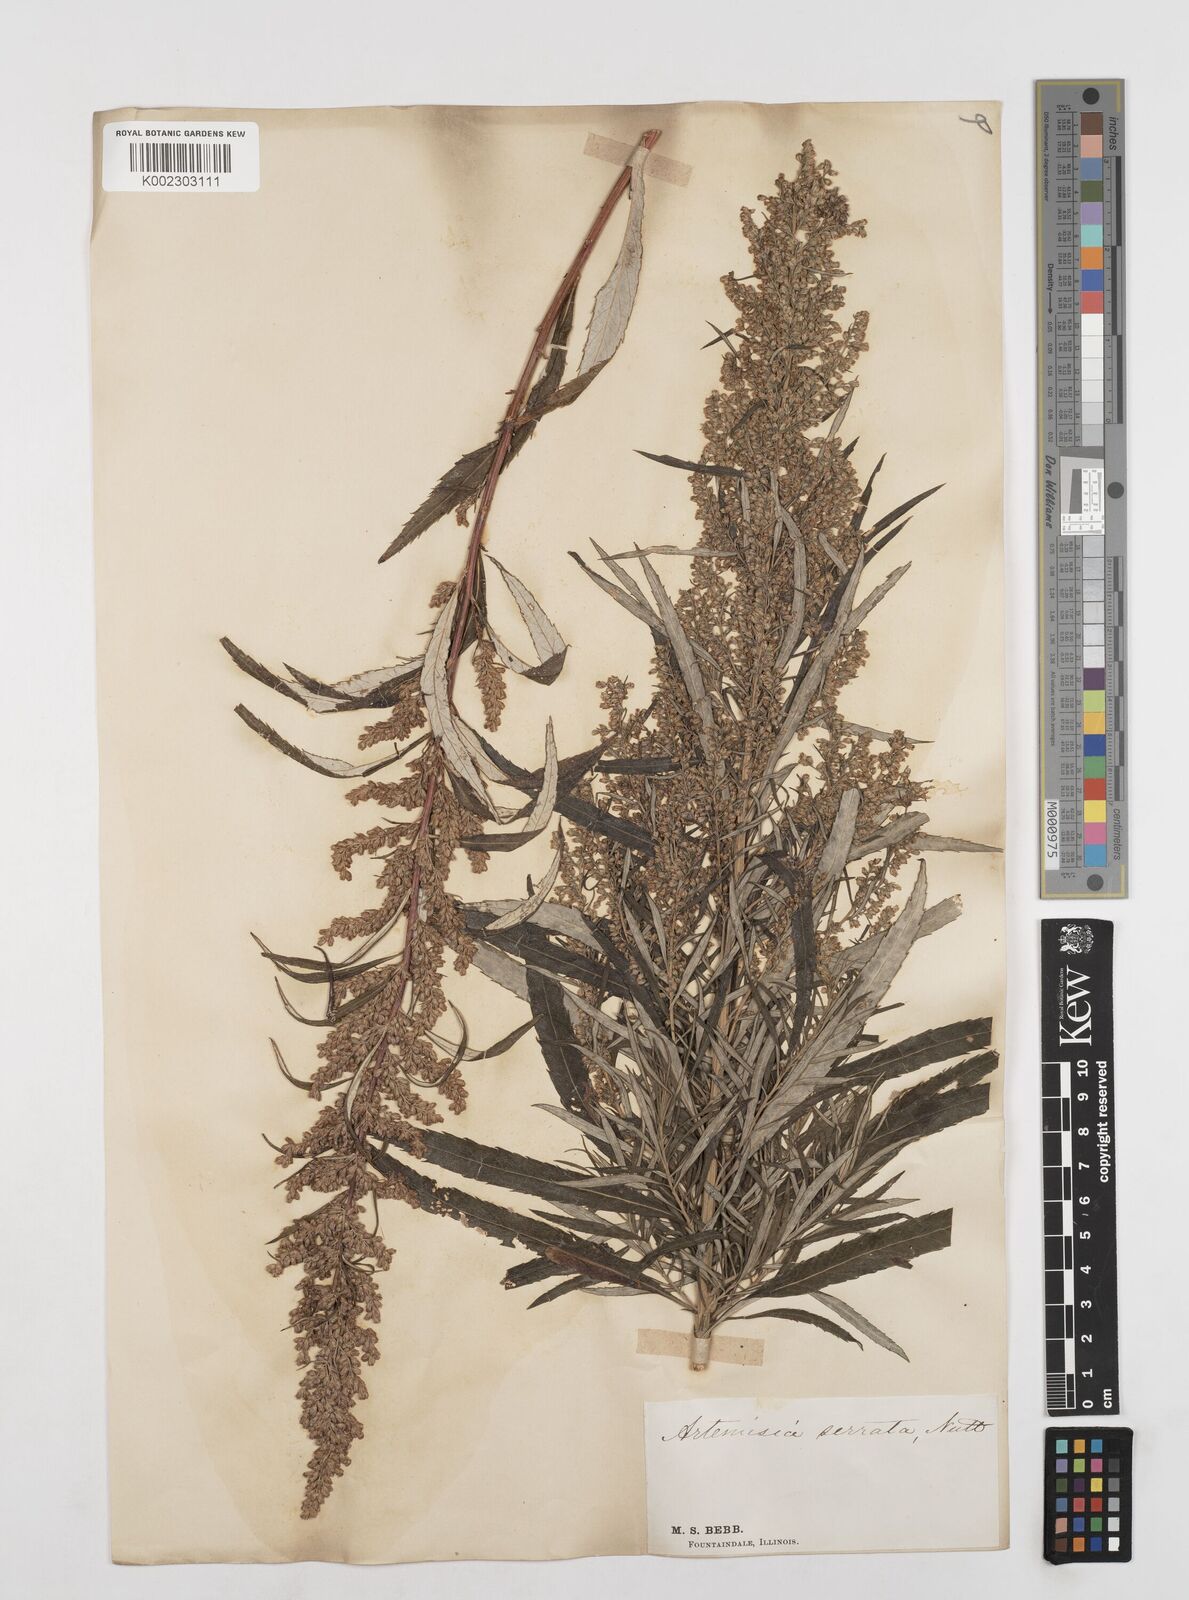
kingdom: Plantae
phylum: Tracheophyta
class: Magnoliopsida
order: Asterales
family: Asteraceae
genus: Artemisia
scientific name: Artemisia serrata
